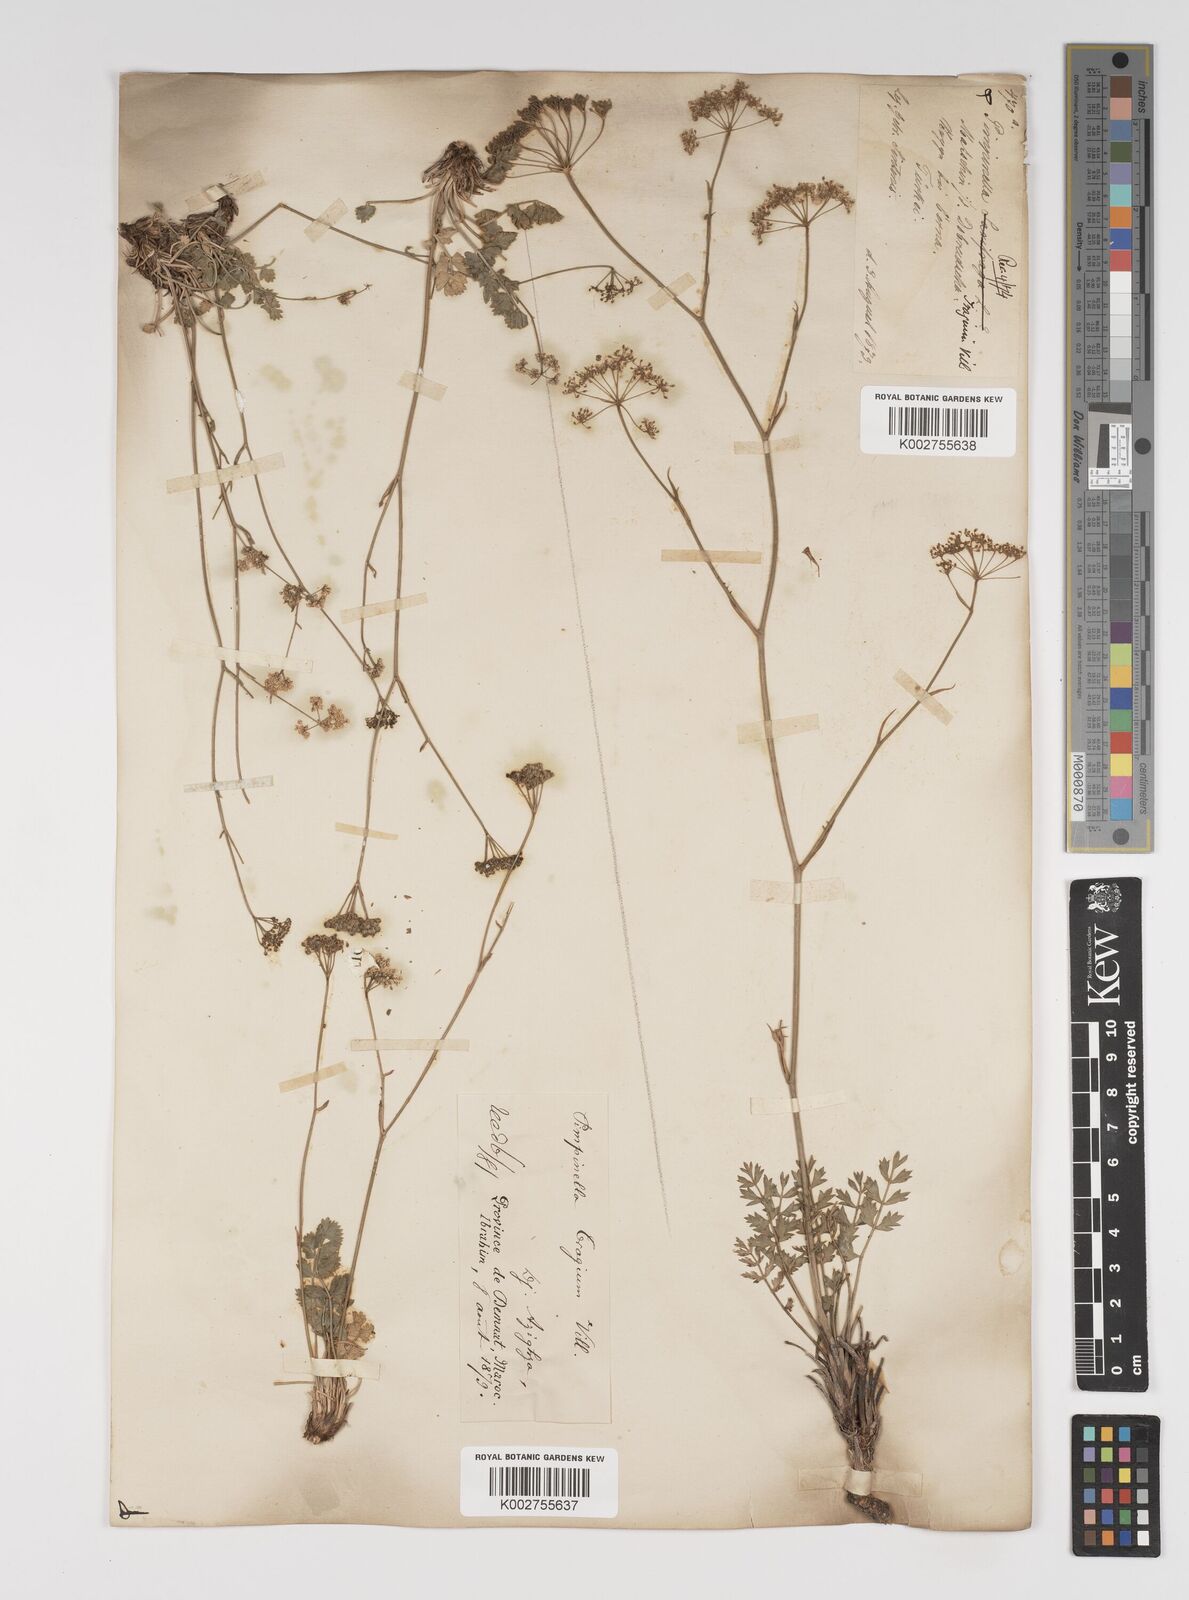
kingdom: Plantae
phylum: Tracheophyta
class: Magnoliopsida
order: Apiales
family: Apiaceae
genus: Pimpinella
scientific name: Pimpinella tragium
